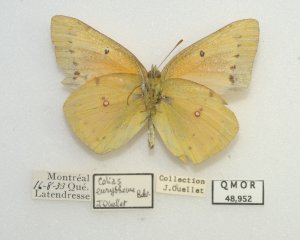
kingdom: Animalia
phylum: Arthropoda
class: Insecta
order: Lepidoptera
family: Pieridae
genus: Colias
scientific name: Colias eurytheme
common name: Orange Sulphur
